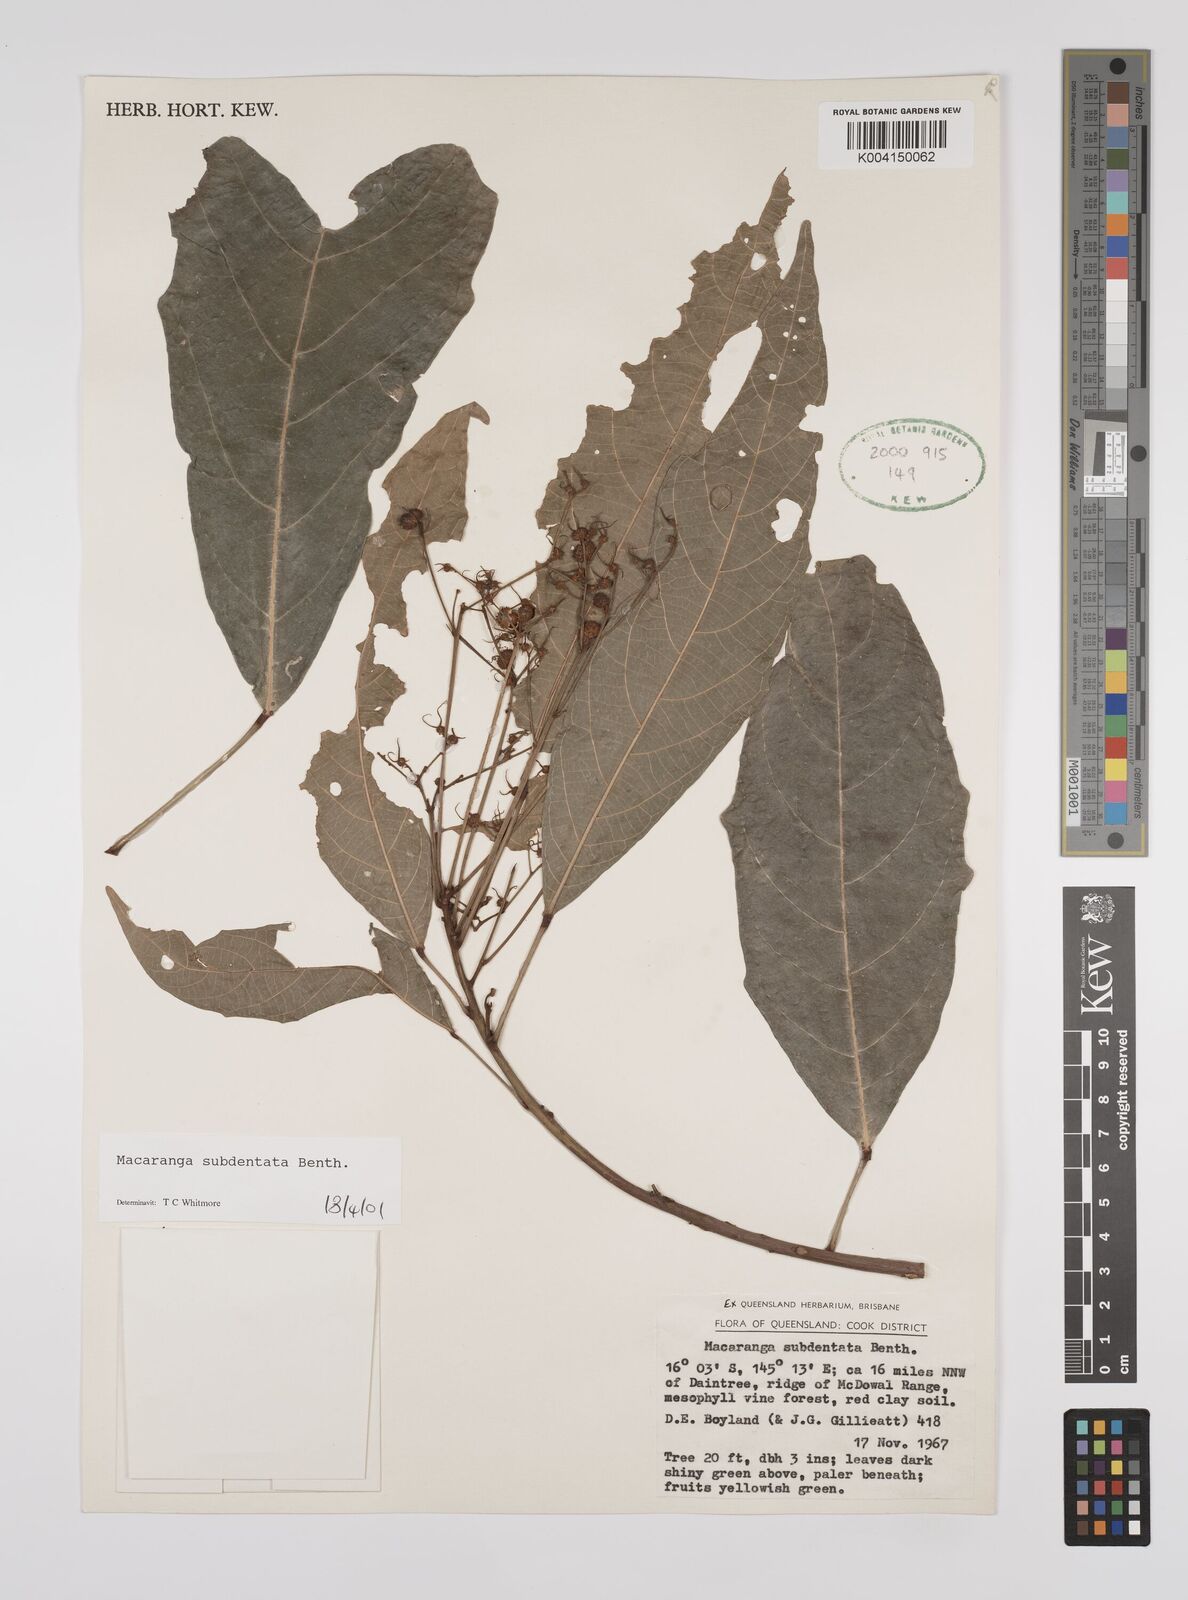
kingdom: Plantae
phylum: Tracheophyta
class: Magnoliopsida
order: Malpighiales
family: Euphorbiaceae
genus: Macaranga
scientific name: Macaranga subdentata
